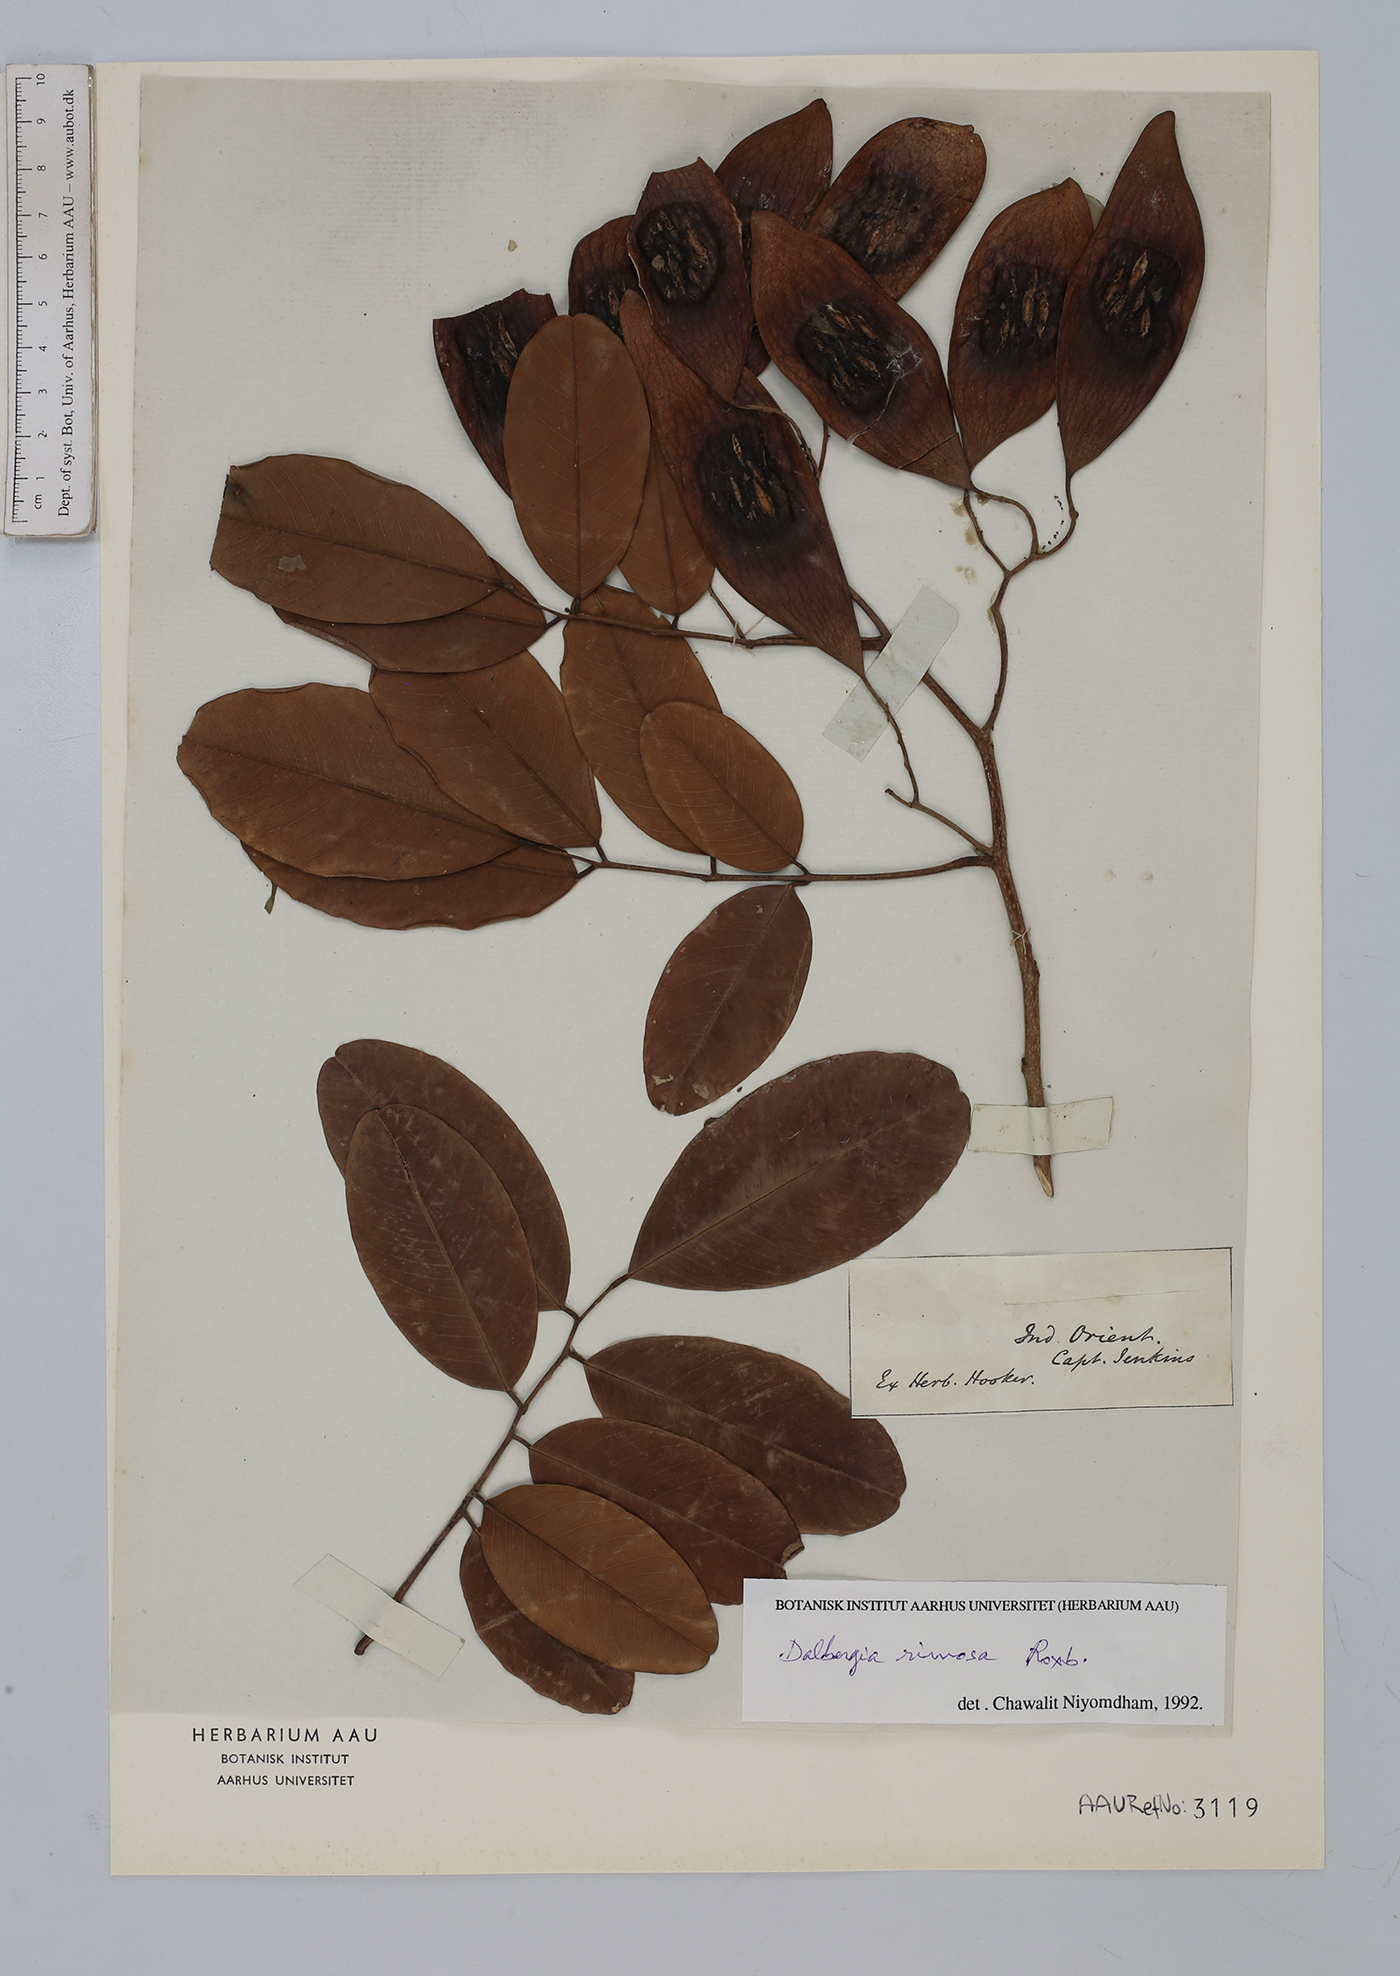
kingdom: Plantae
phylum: Tracheophyta
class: Magnoliopsida
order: Fabales
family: Fabaceae
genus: Dalbergia
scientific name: Dalbergia rimosa
